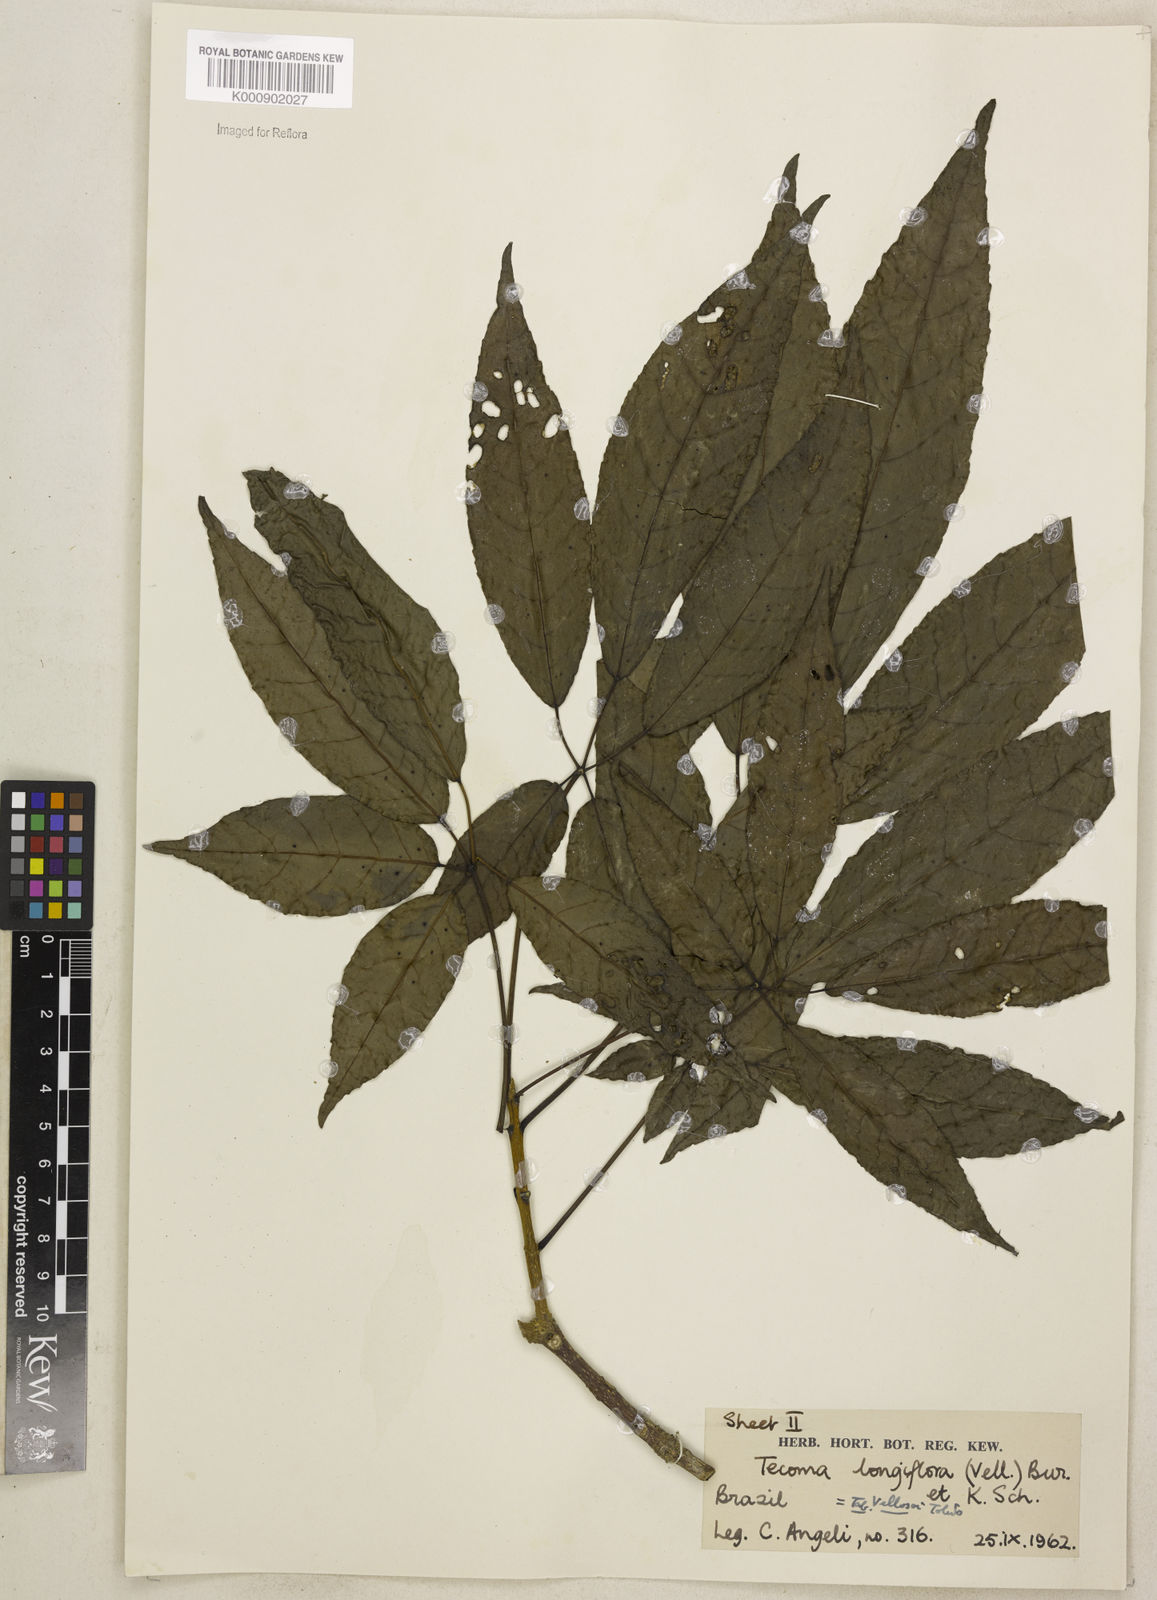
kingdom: Plantae
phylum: Tracheophyta
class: Magnoliopsida
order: Lamiales
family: Bignoniaceae
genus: Ekmanianthe
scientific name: Ekmanianthe longiflora
